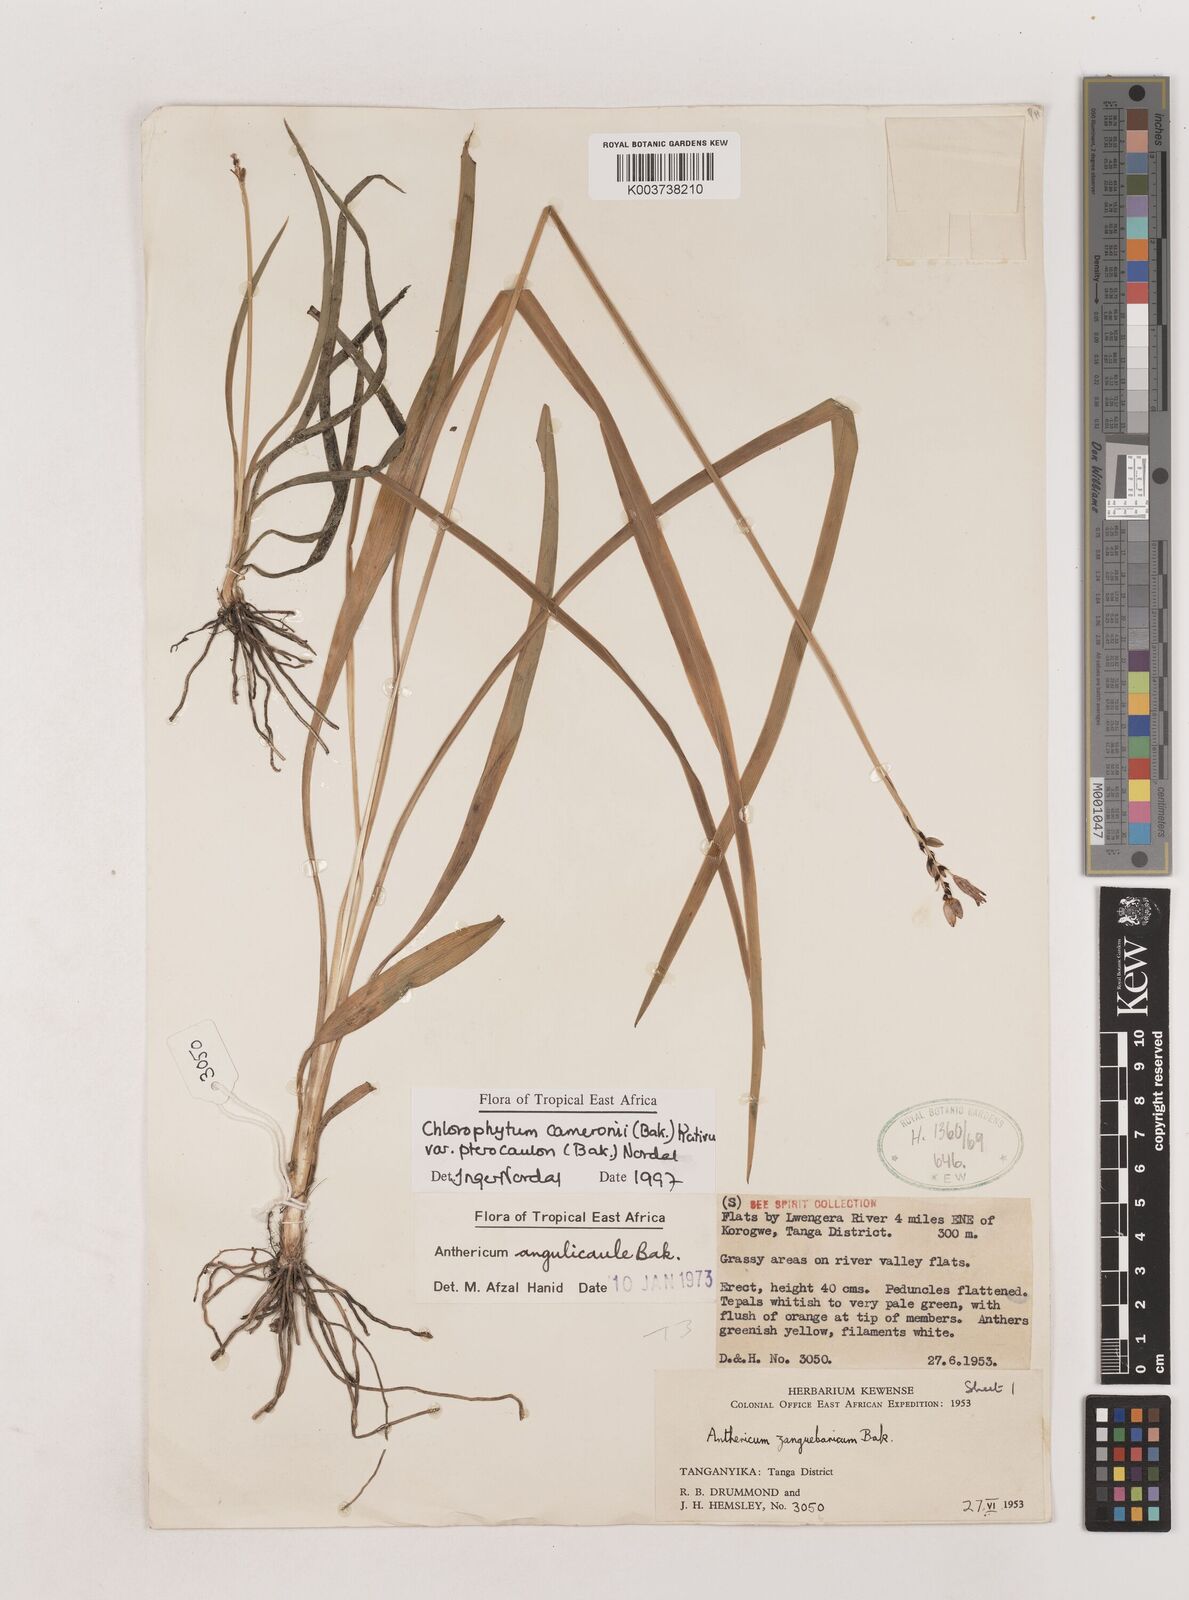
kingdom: Plantae
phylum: Tracheophyta
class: Liliopsida
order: Asparagales
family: Asparagaceae
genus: Chlorophytum
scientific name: Chlorophytum cameronii
